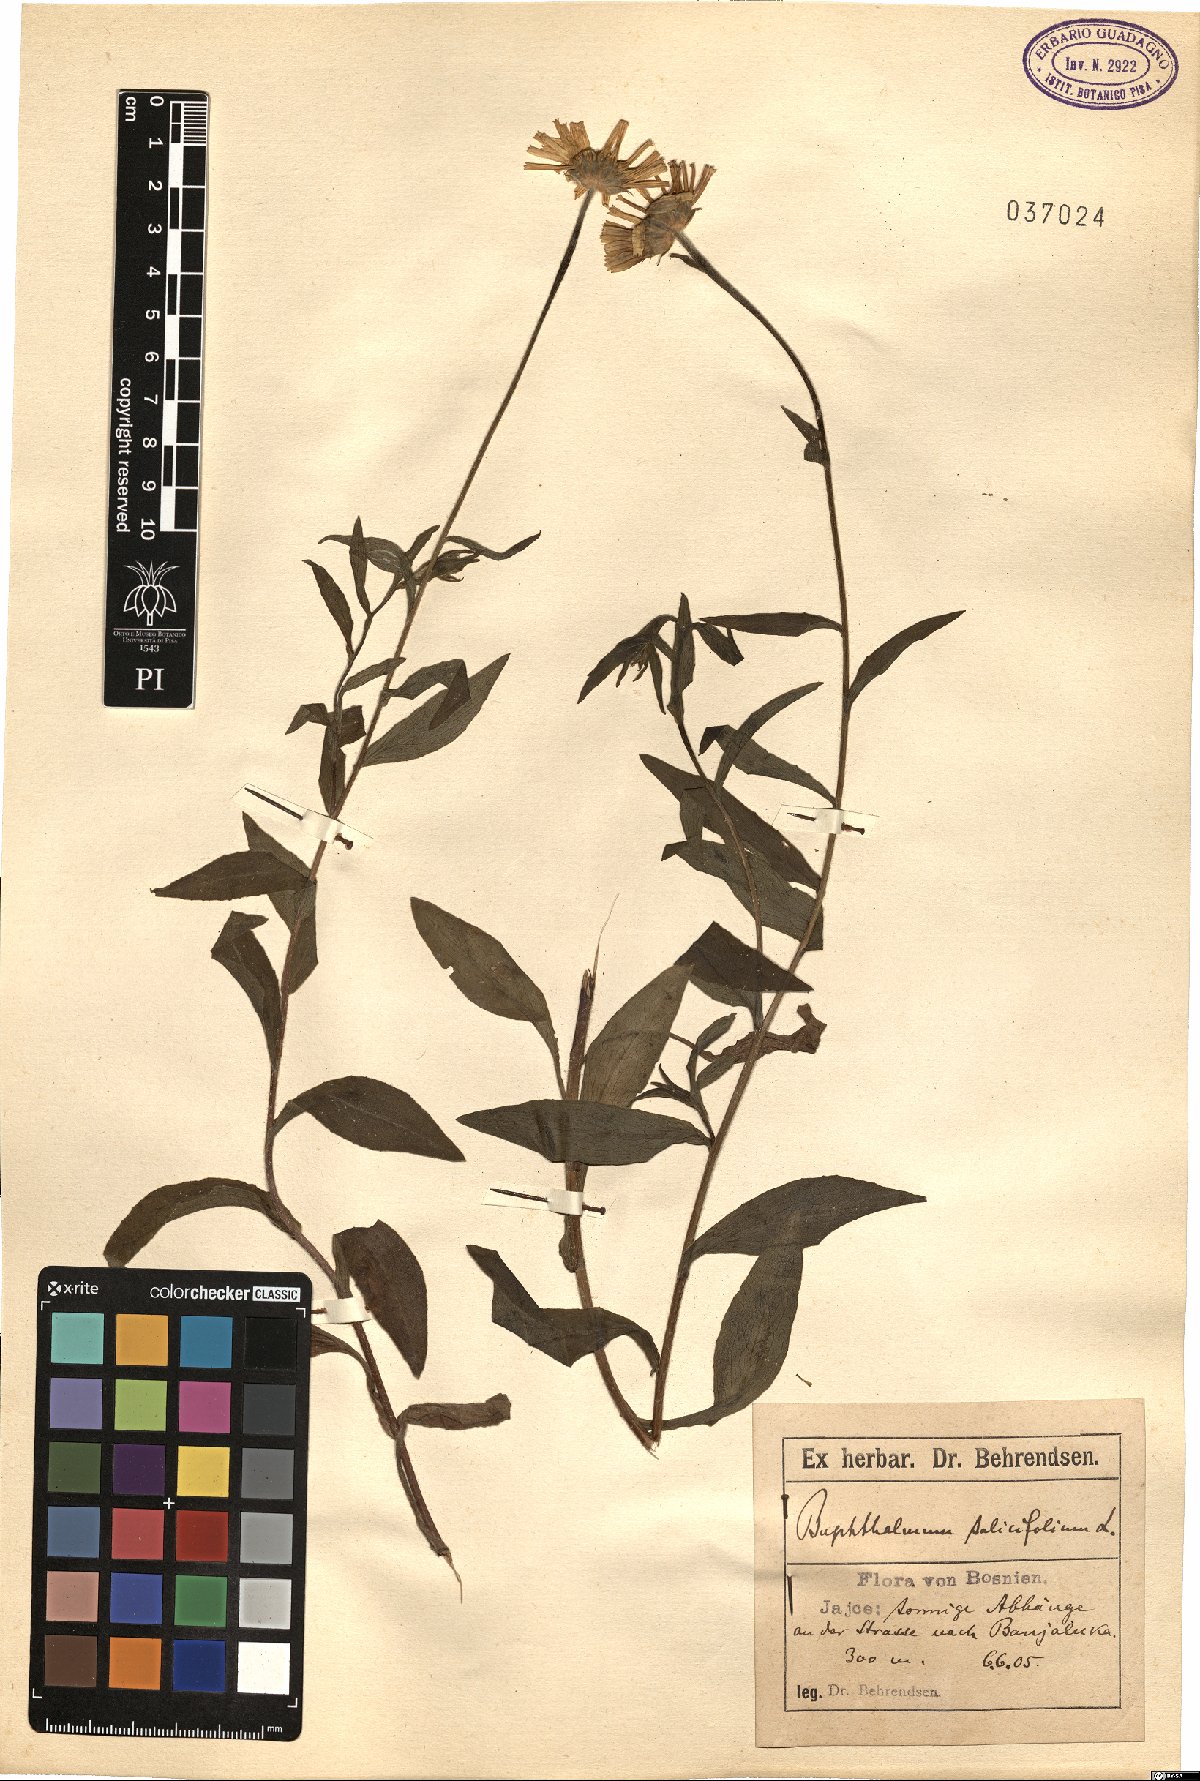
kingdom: Plantae
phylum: Tracheophyta
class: Magnoliopsida
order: Asterales
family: Asteraceae
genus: Buphthalmum
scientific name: Buphthalmum salicifolium
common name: Willow-leaved yellow-oxeye
